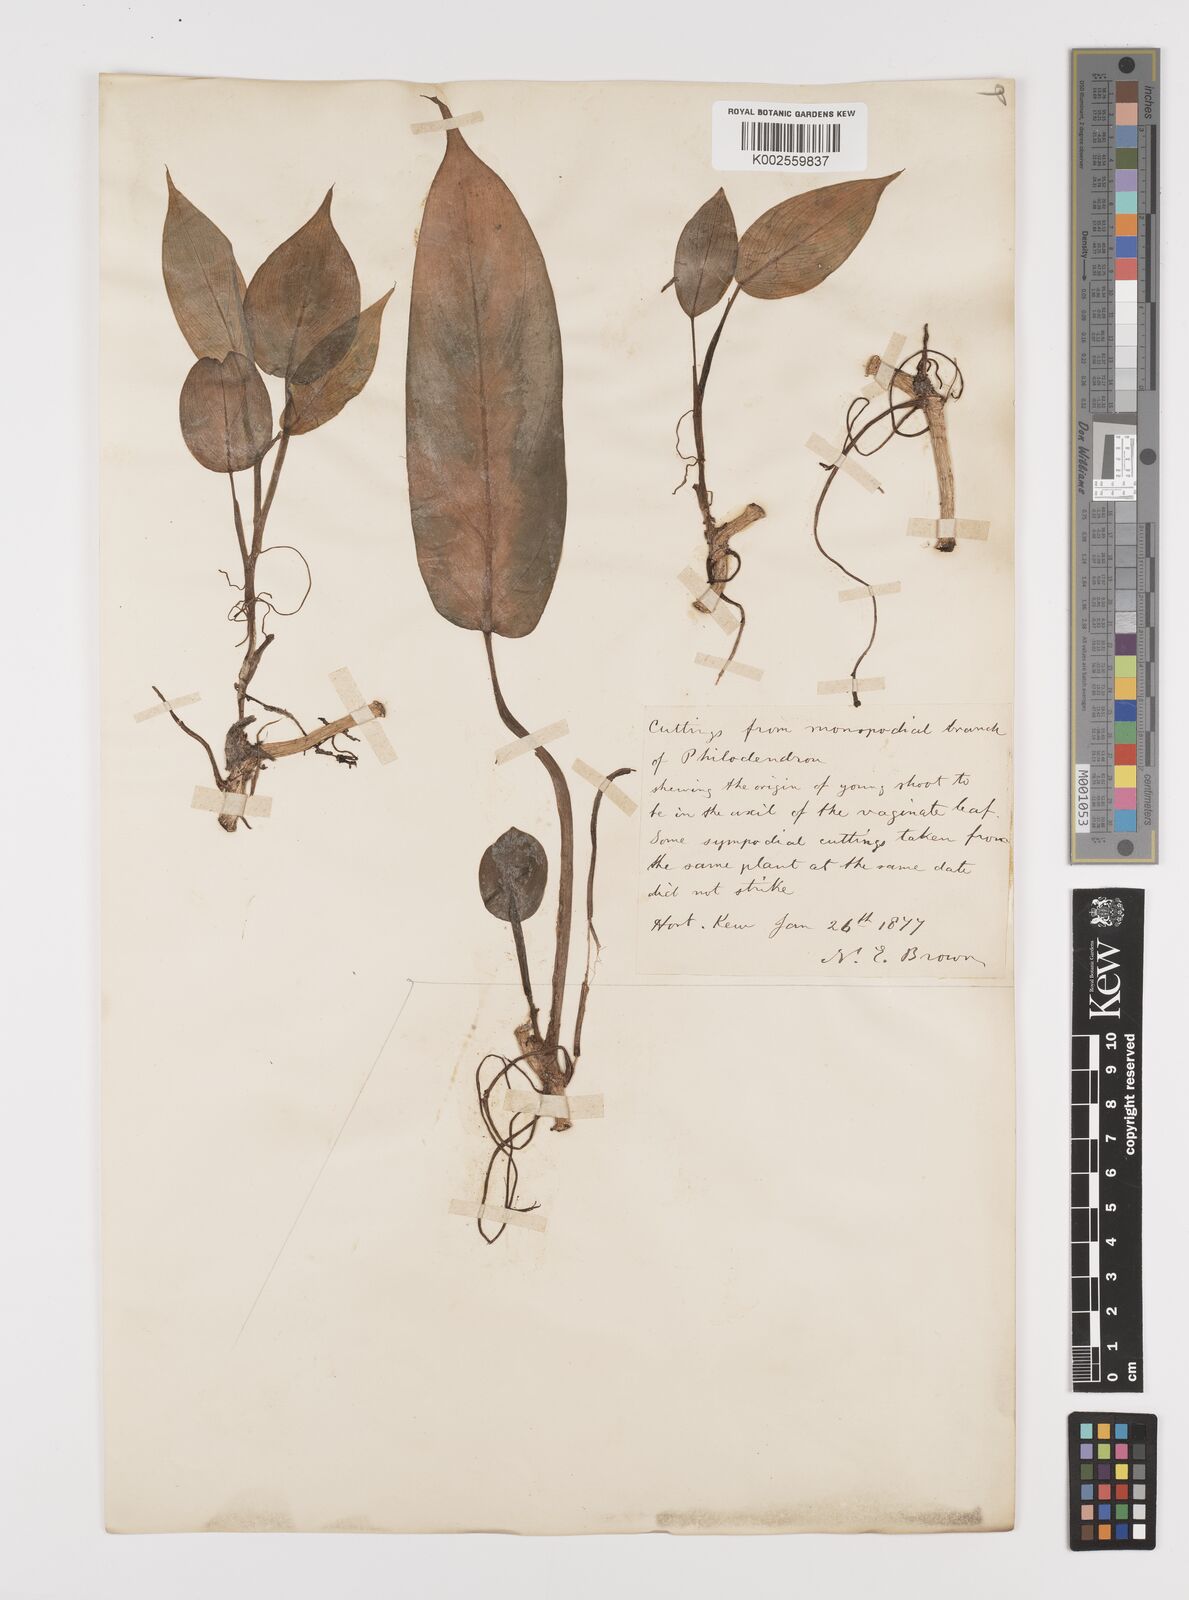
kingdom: Plantae
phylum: Tracheophyta
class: Liliopsida
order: Alismatales
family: Araceae
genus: Philodendron
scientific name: Philodendron sagittifolium
